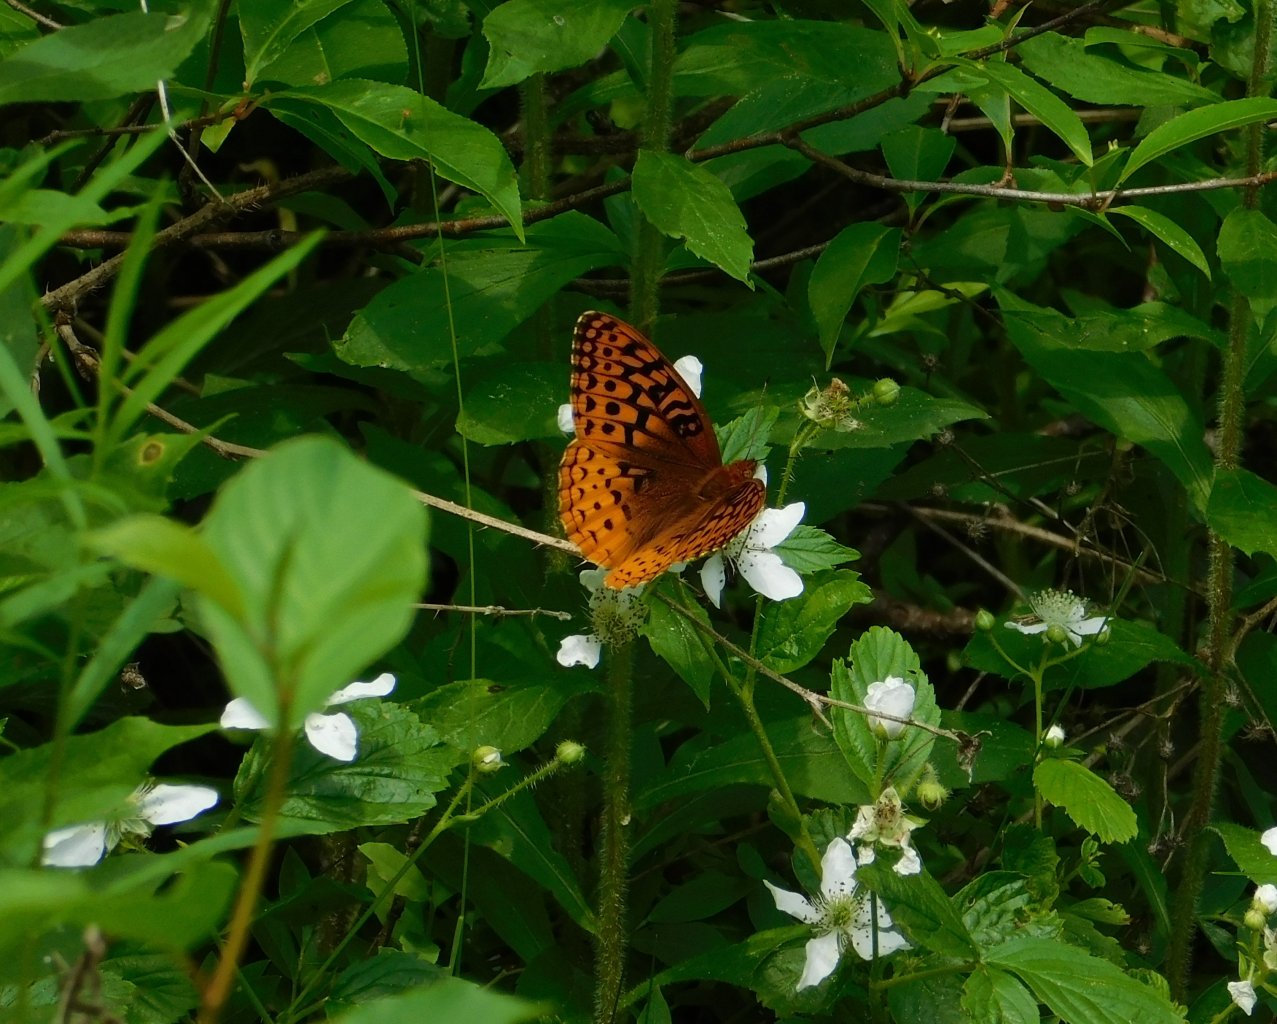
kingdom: Animalia
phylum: Arthropoda
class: Insecta
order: Lepidoptera
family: Nymphalidae
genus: Speyeria
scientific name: Speyeria cybele
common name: Great Spangled Fritillary
